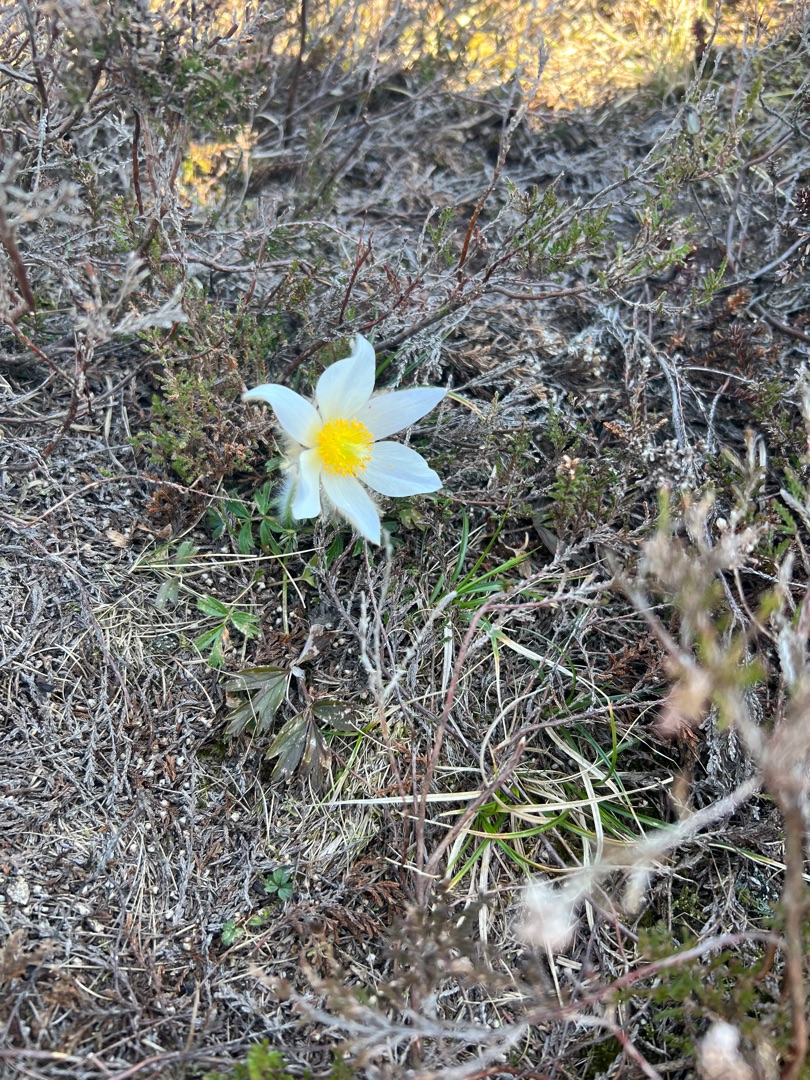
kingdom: Plantae
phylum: Tracheophyta
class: Magnoliopsida
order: Ranunculales
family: Ranunculaceae
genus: Pulsatilla
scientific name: Pulsatilla vernalis
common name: Vår-kobjælde
